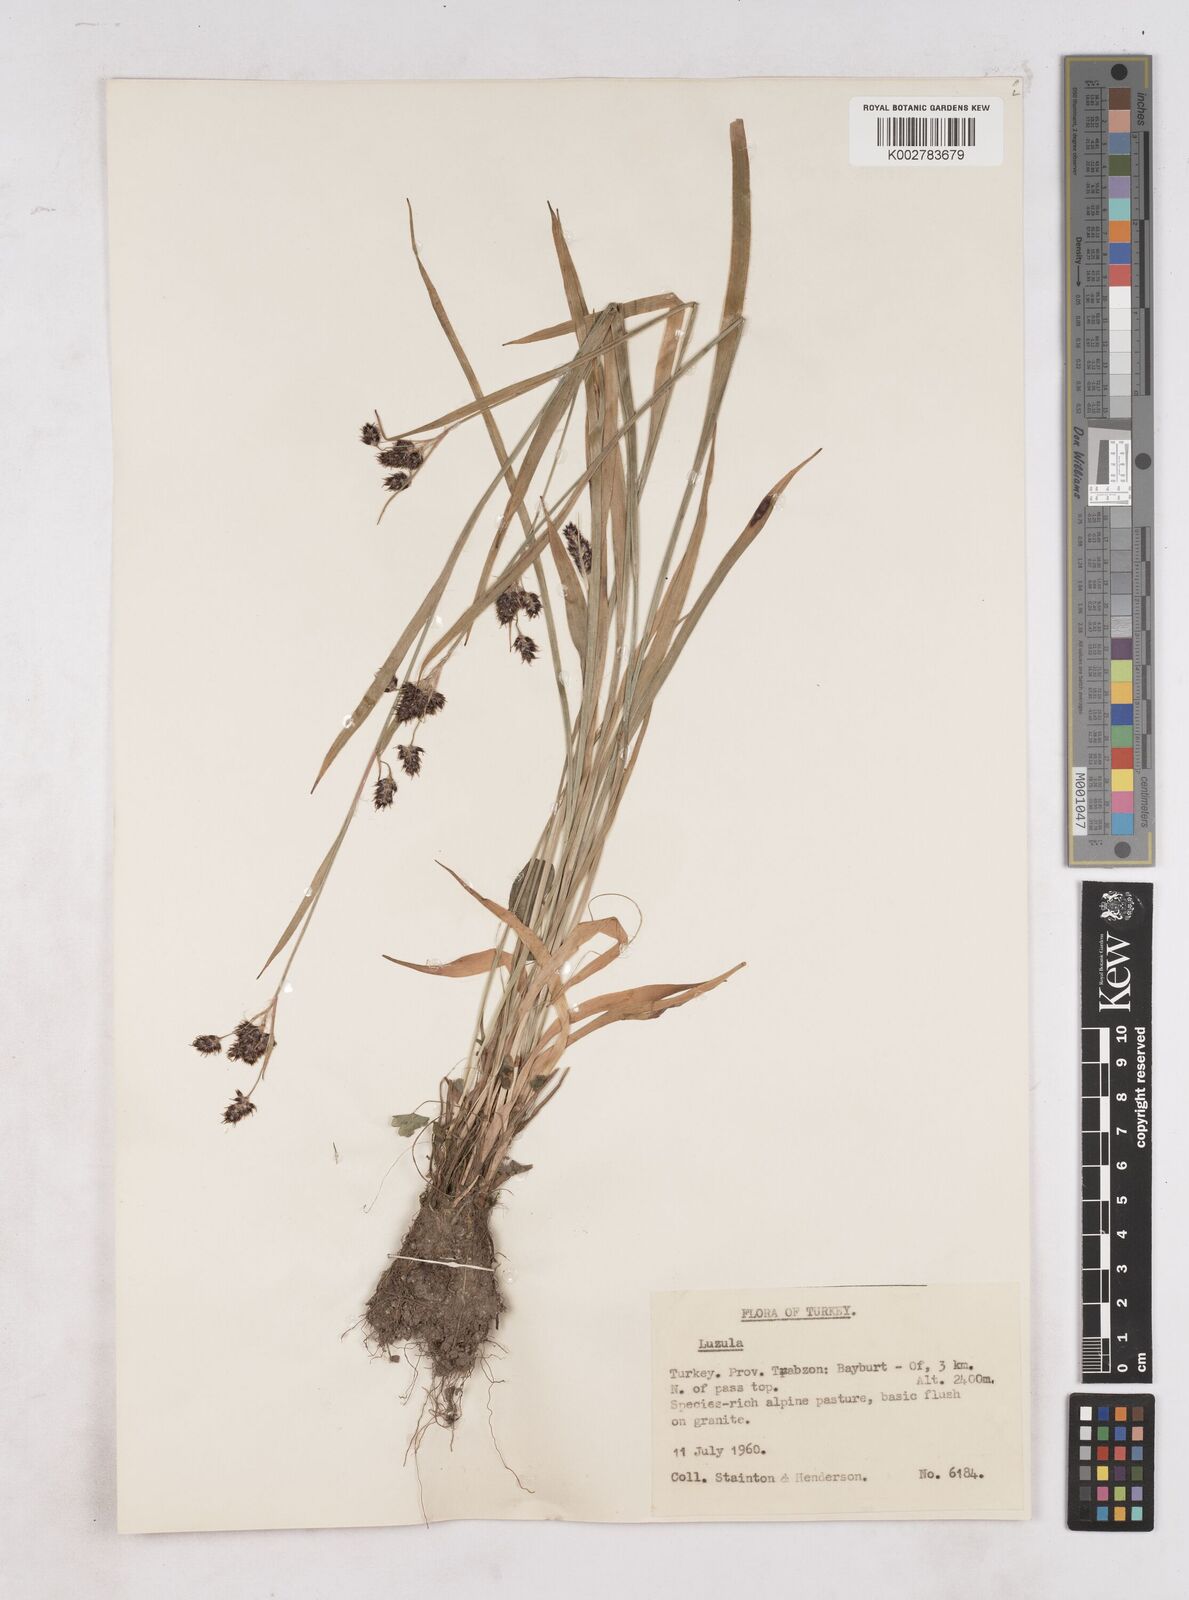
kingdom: Plantae
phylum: Tracheophyta
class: Liliopsida
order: Poales
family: Juncaceae
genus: Luzula
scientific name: Luzula
